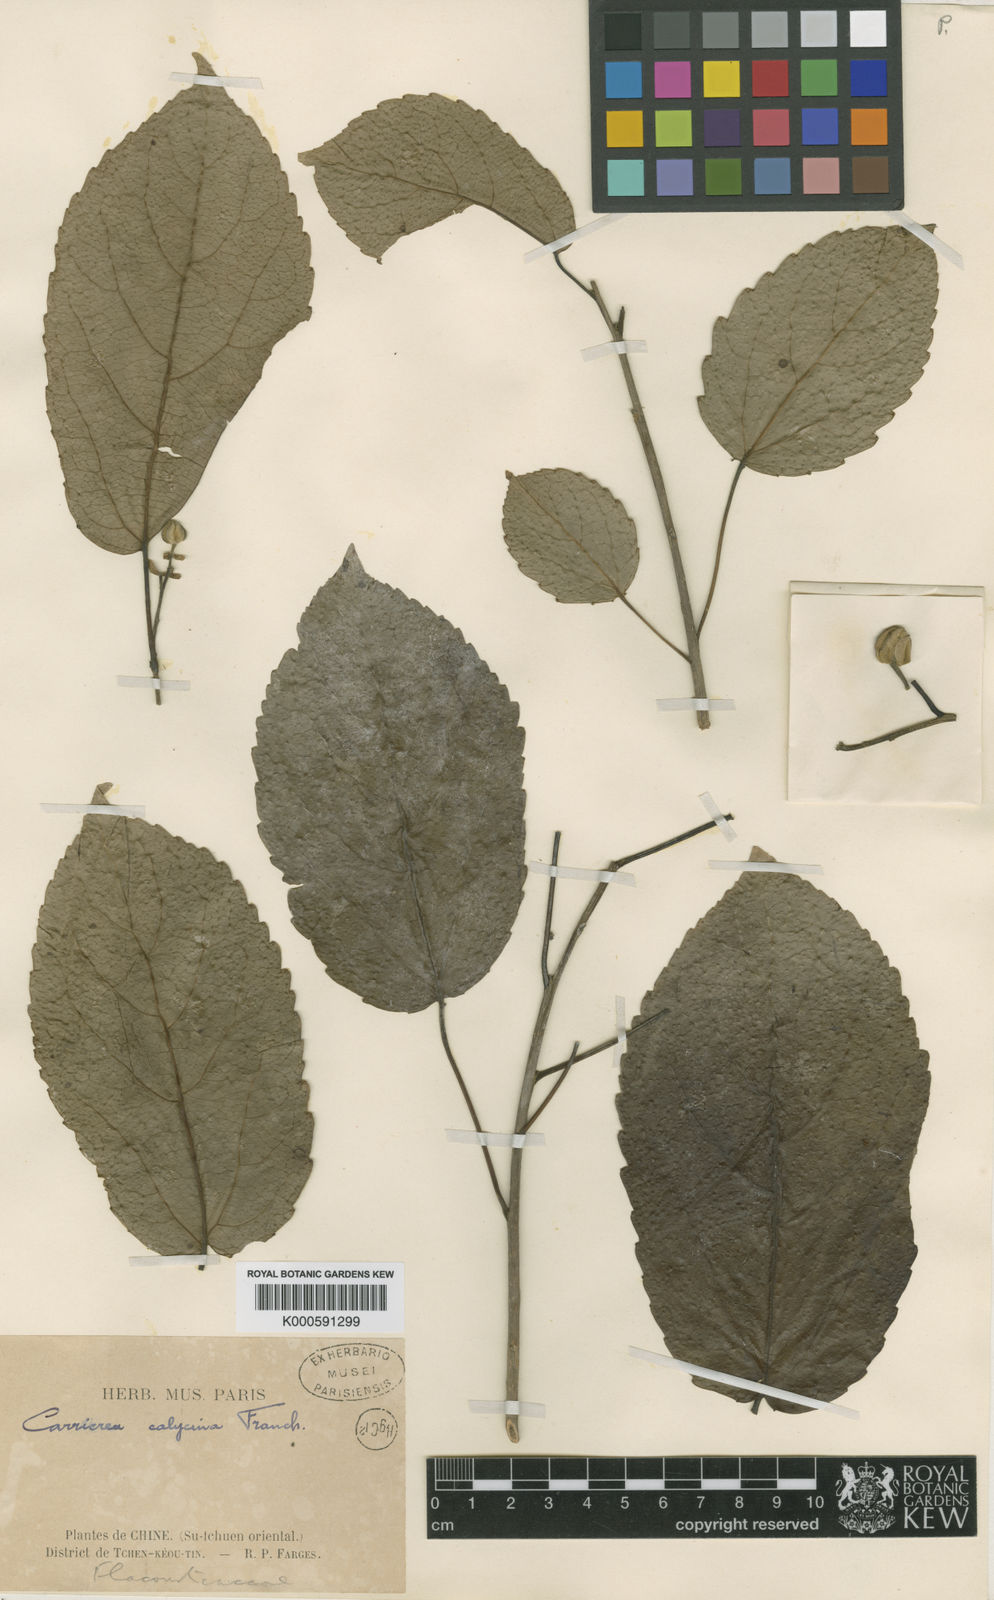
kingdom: Plantae
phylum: Tracheophyta
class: Magnoliopsida
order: Malpighiales
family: Salicaceae
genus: Carrierea
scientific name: Carrierea calycina
